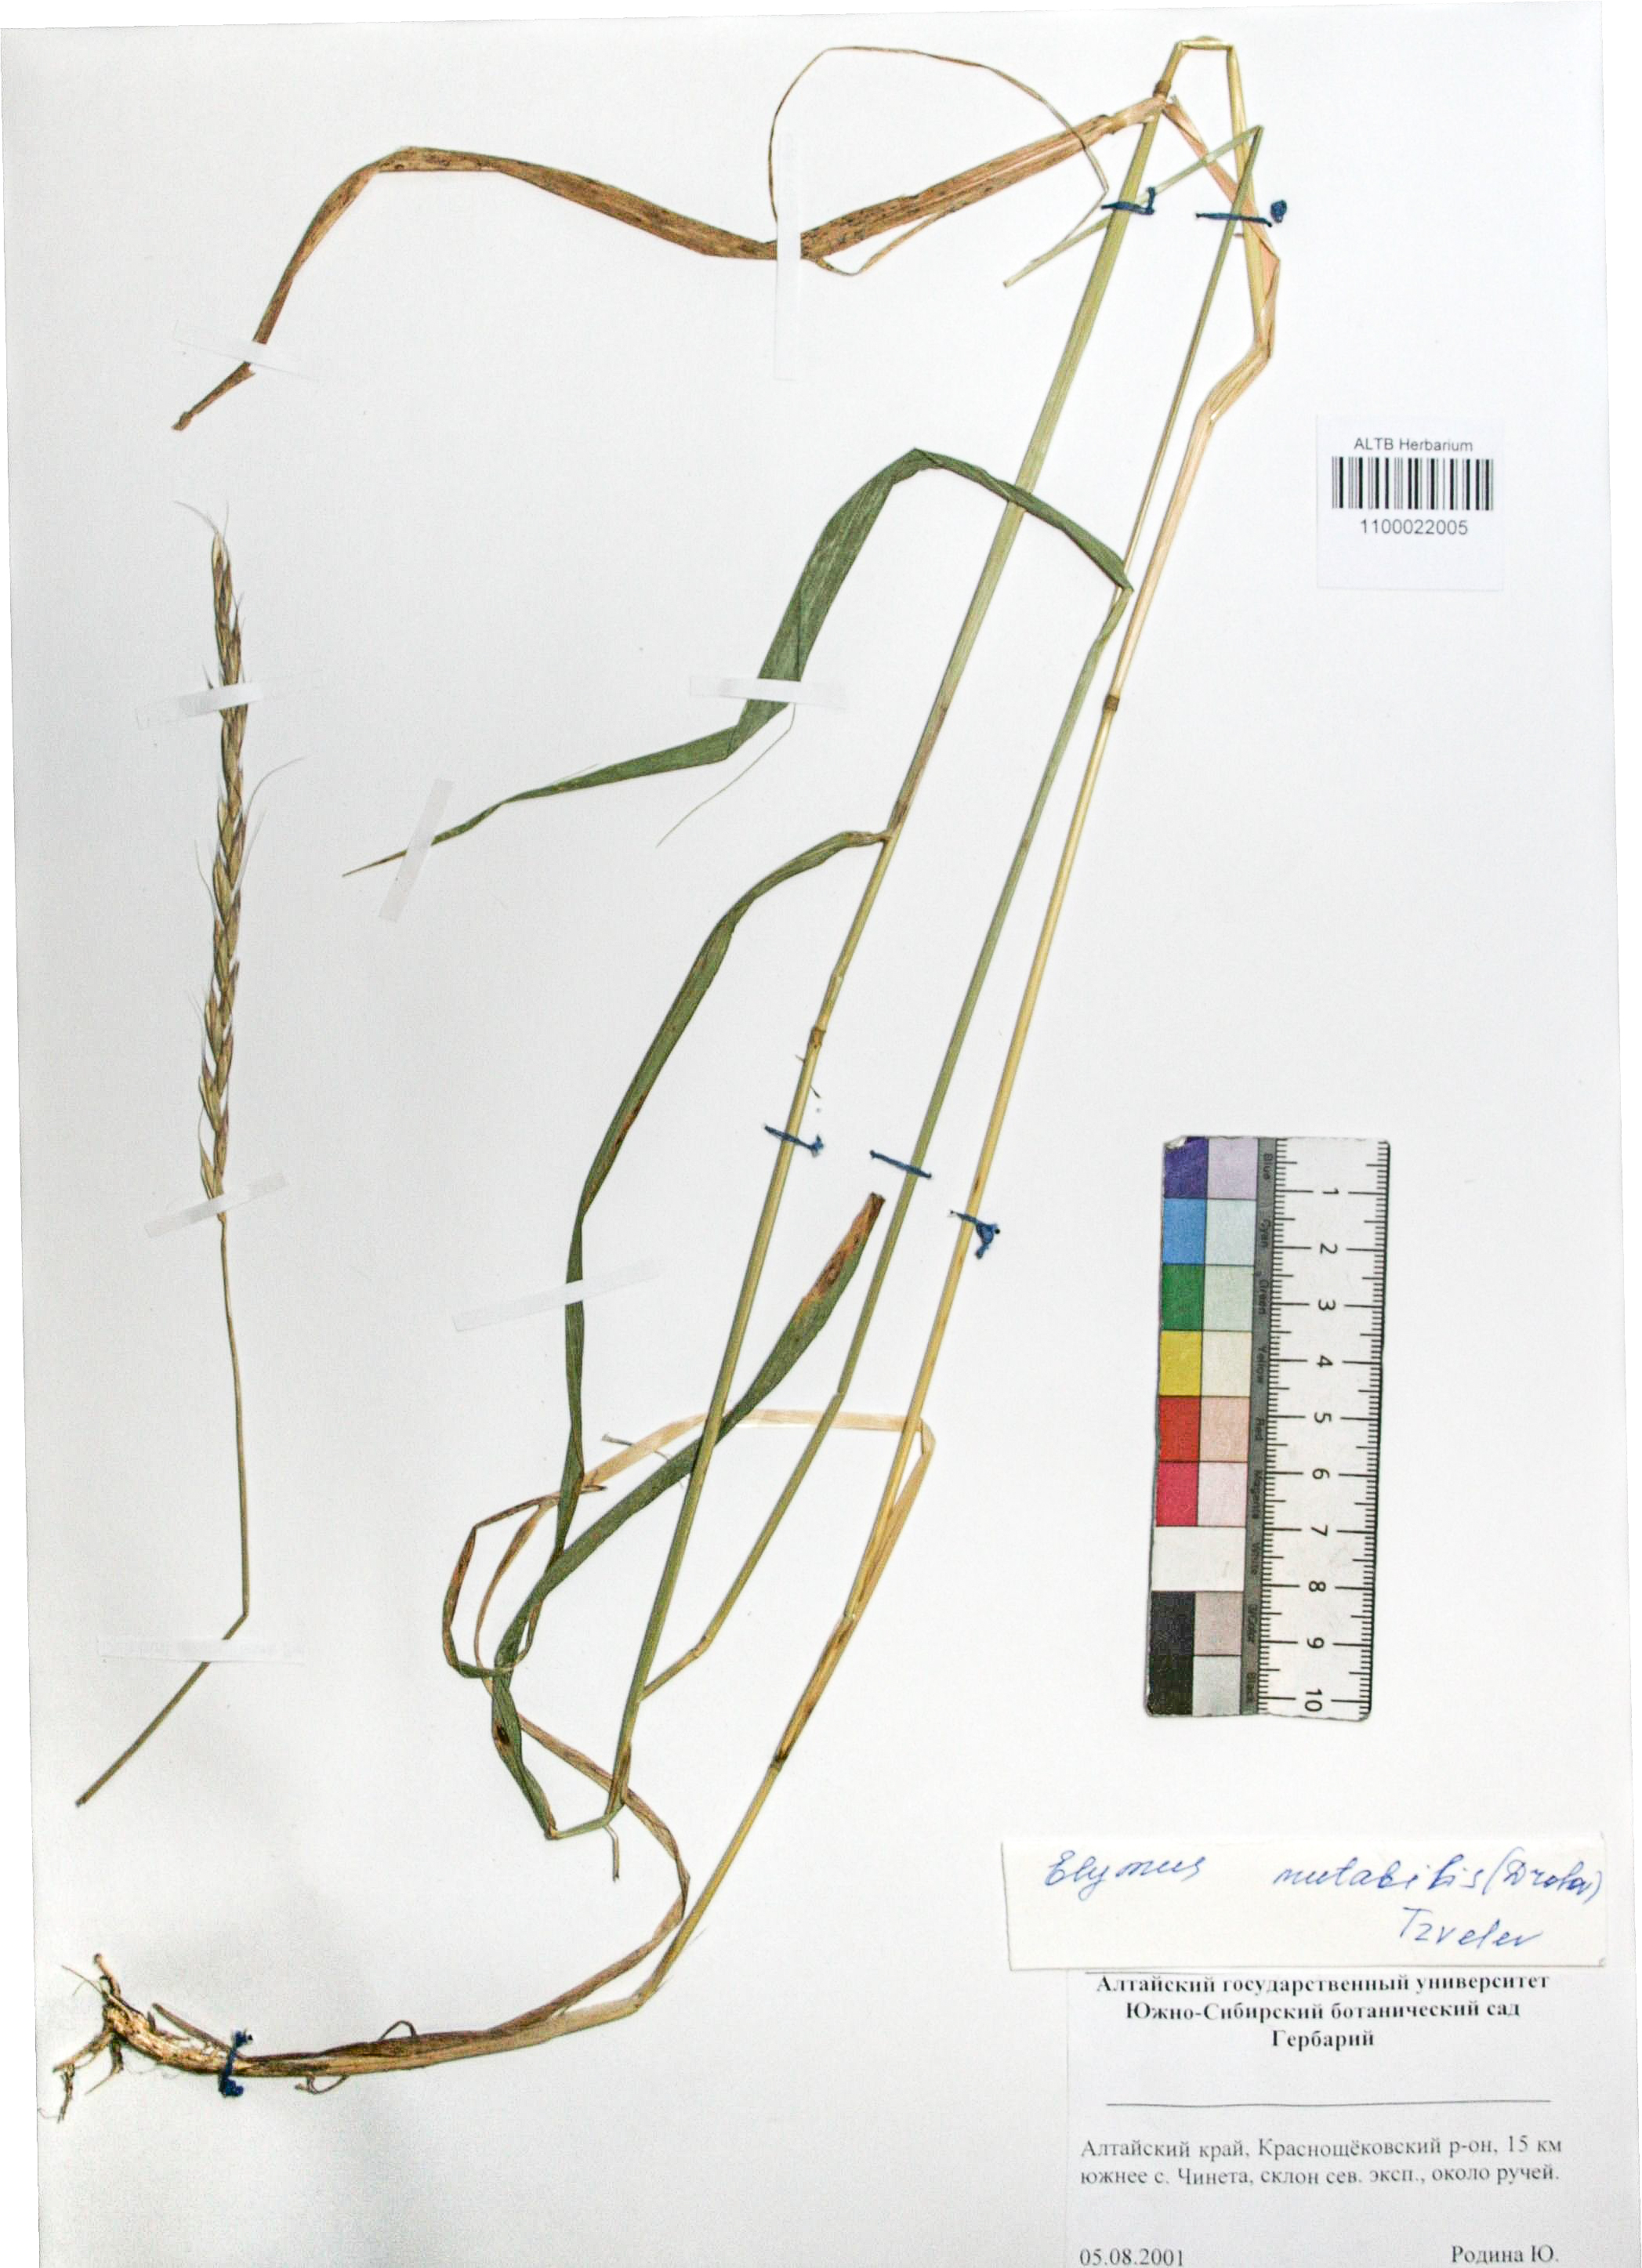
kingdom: Plantae
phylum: Tracheophyta
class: Liliopsida
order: Poales
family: Poaceae
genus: Elymus
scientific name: Elymus mutabilis
